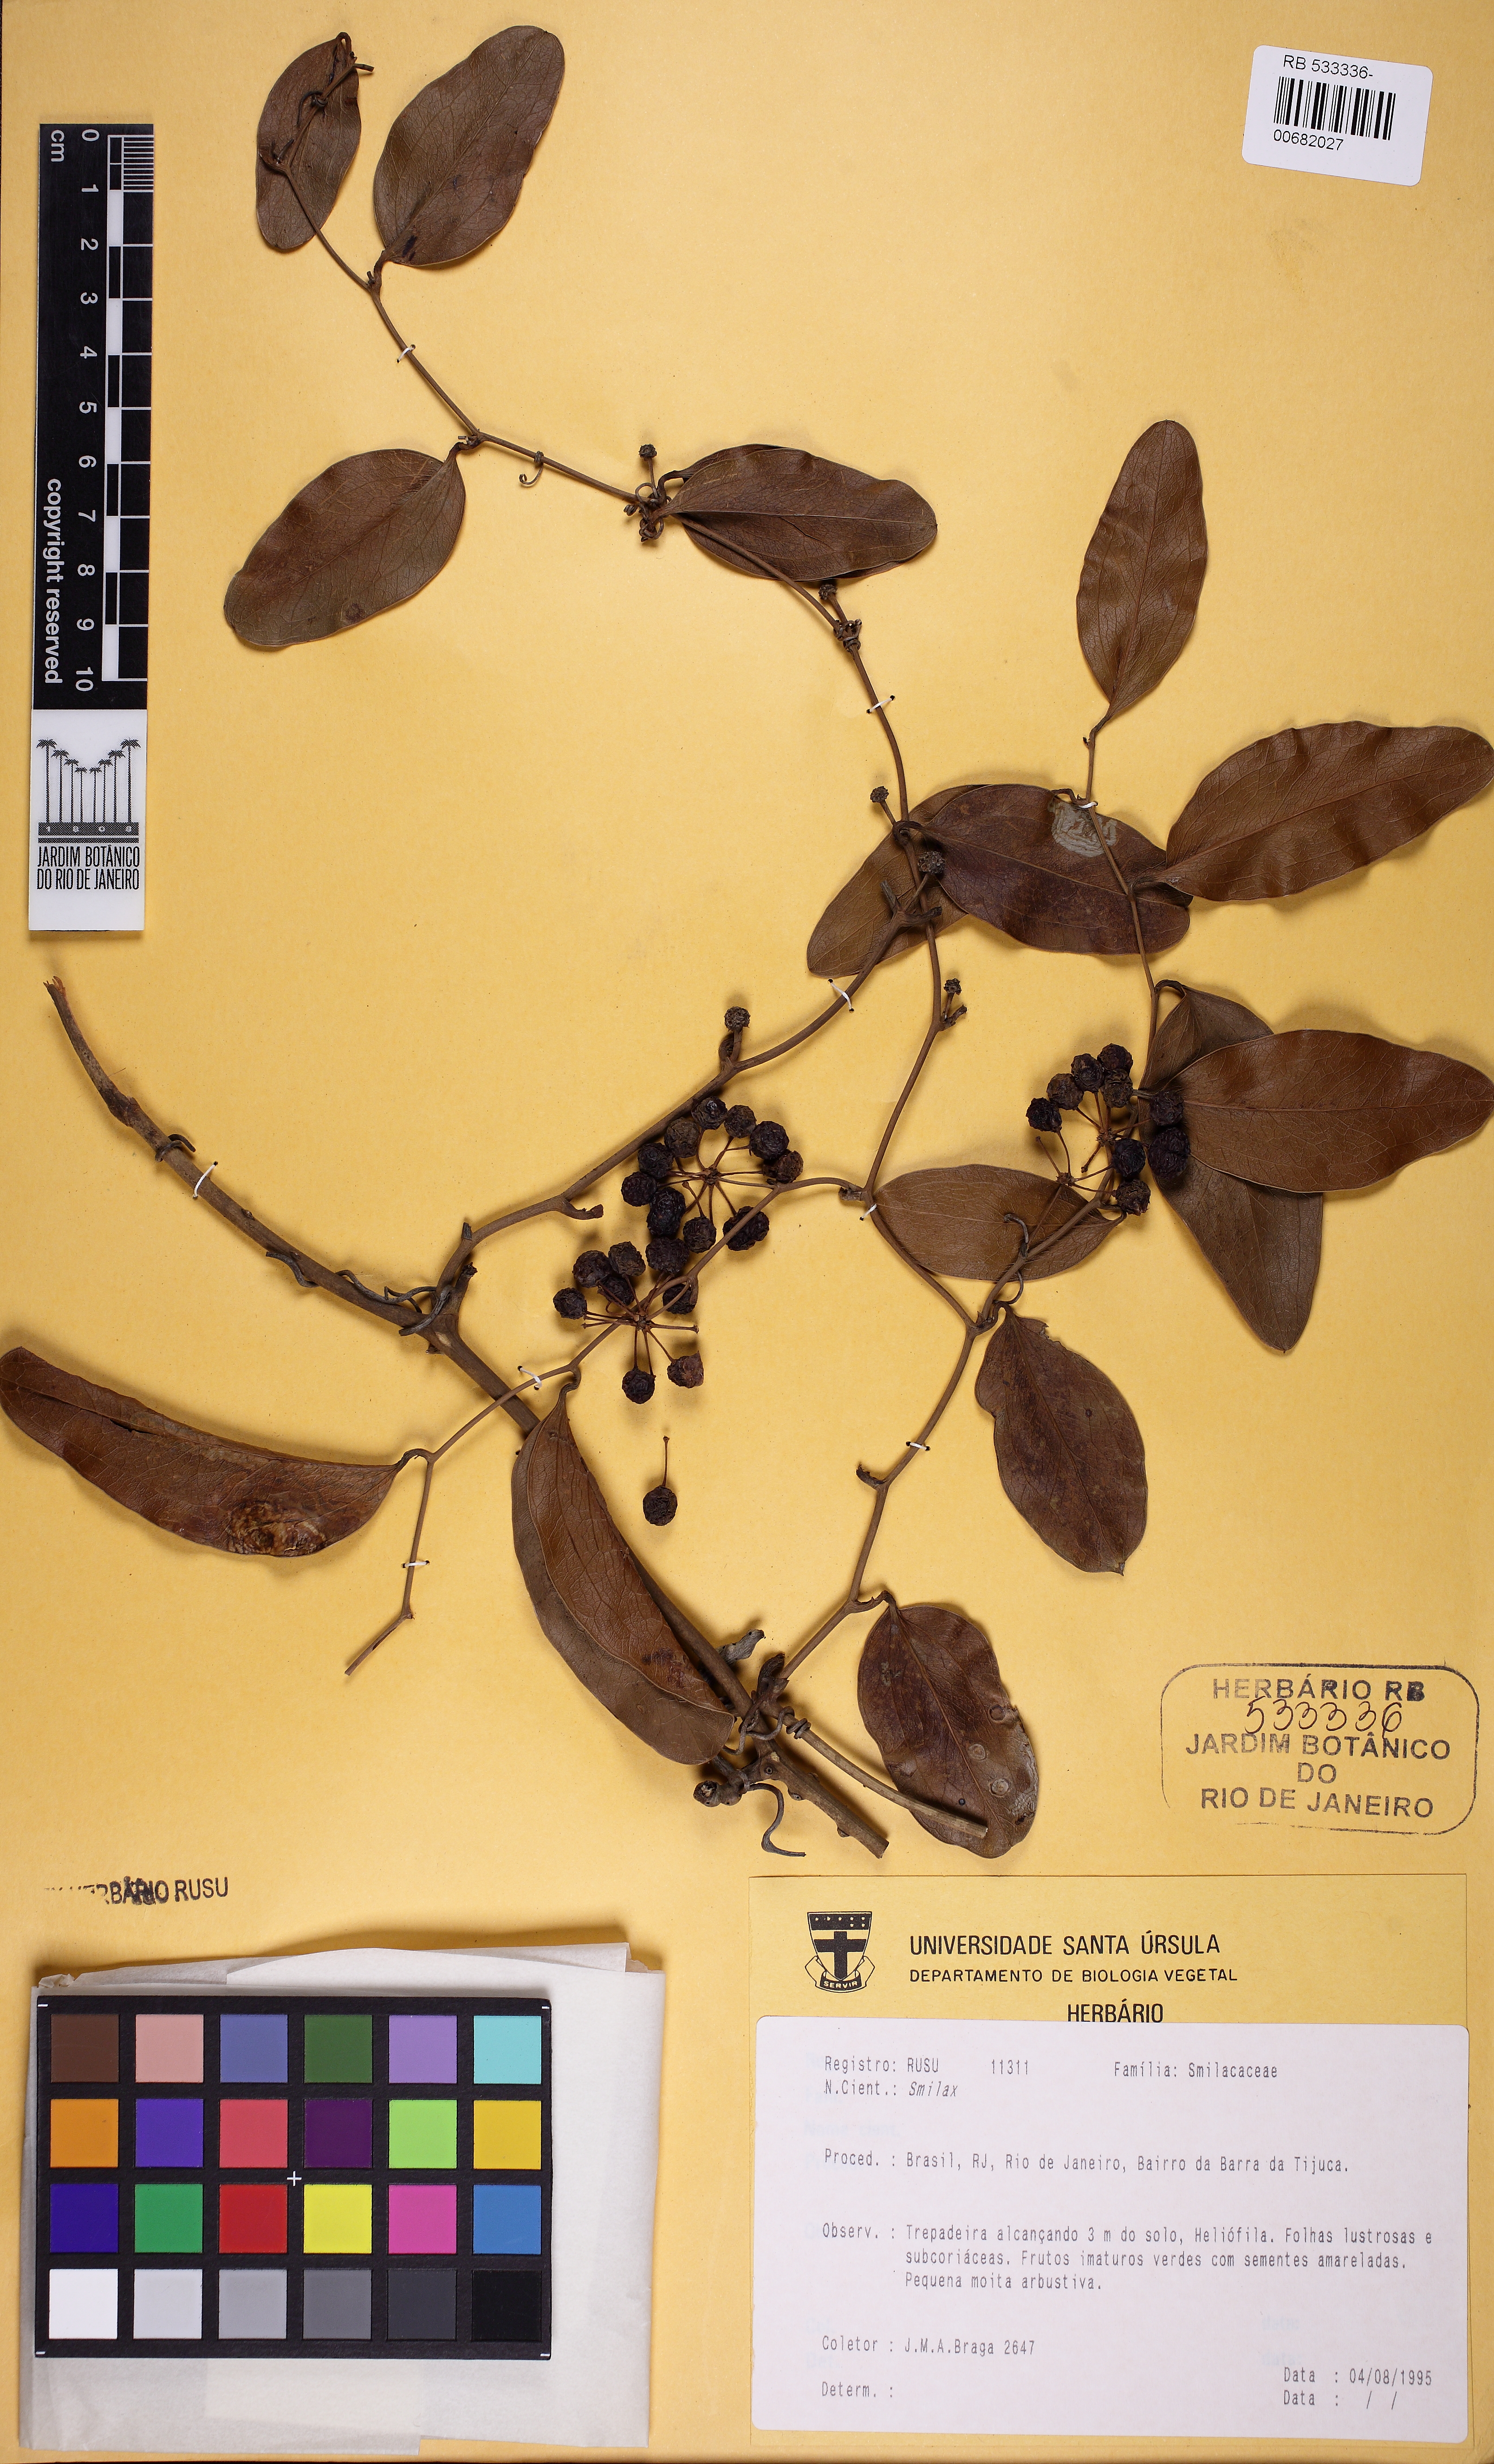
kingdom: Plantae
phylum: Tracheophyta
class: Liliopsida
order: Liliales
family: Smilacaceae
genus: Smilax
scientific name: Smilax
